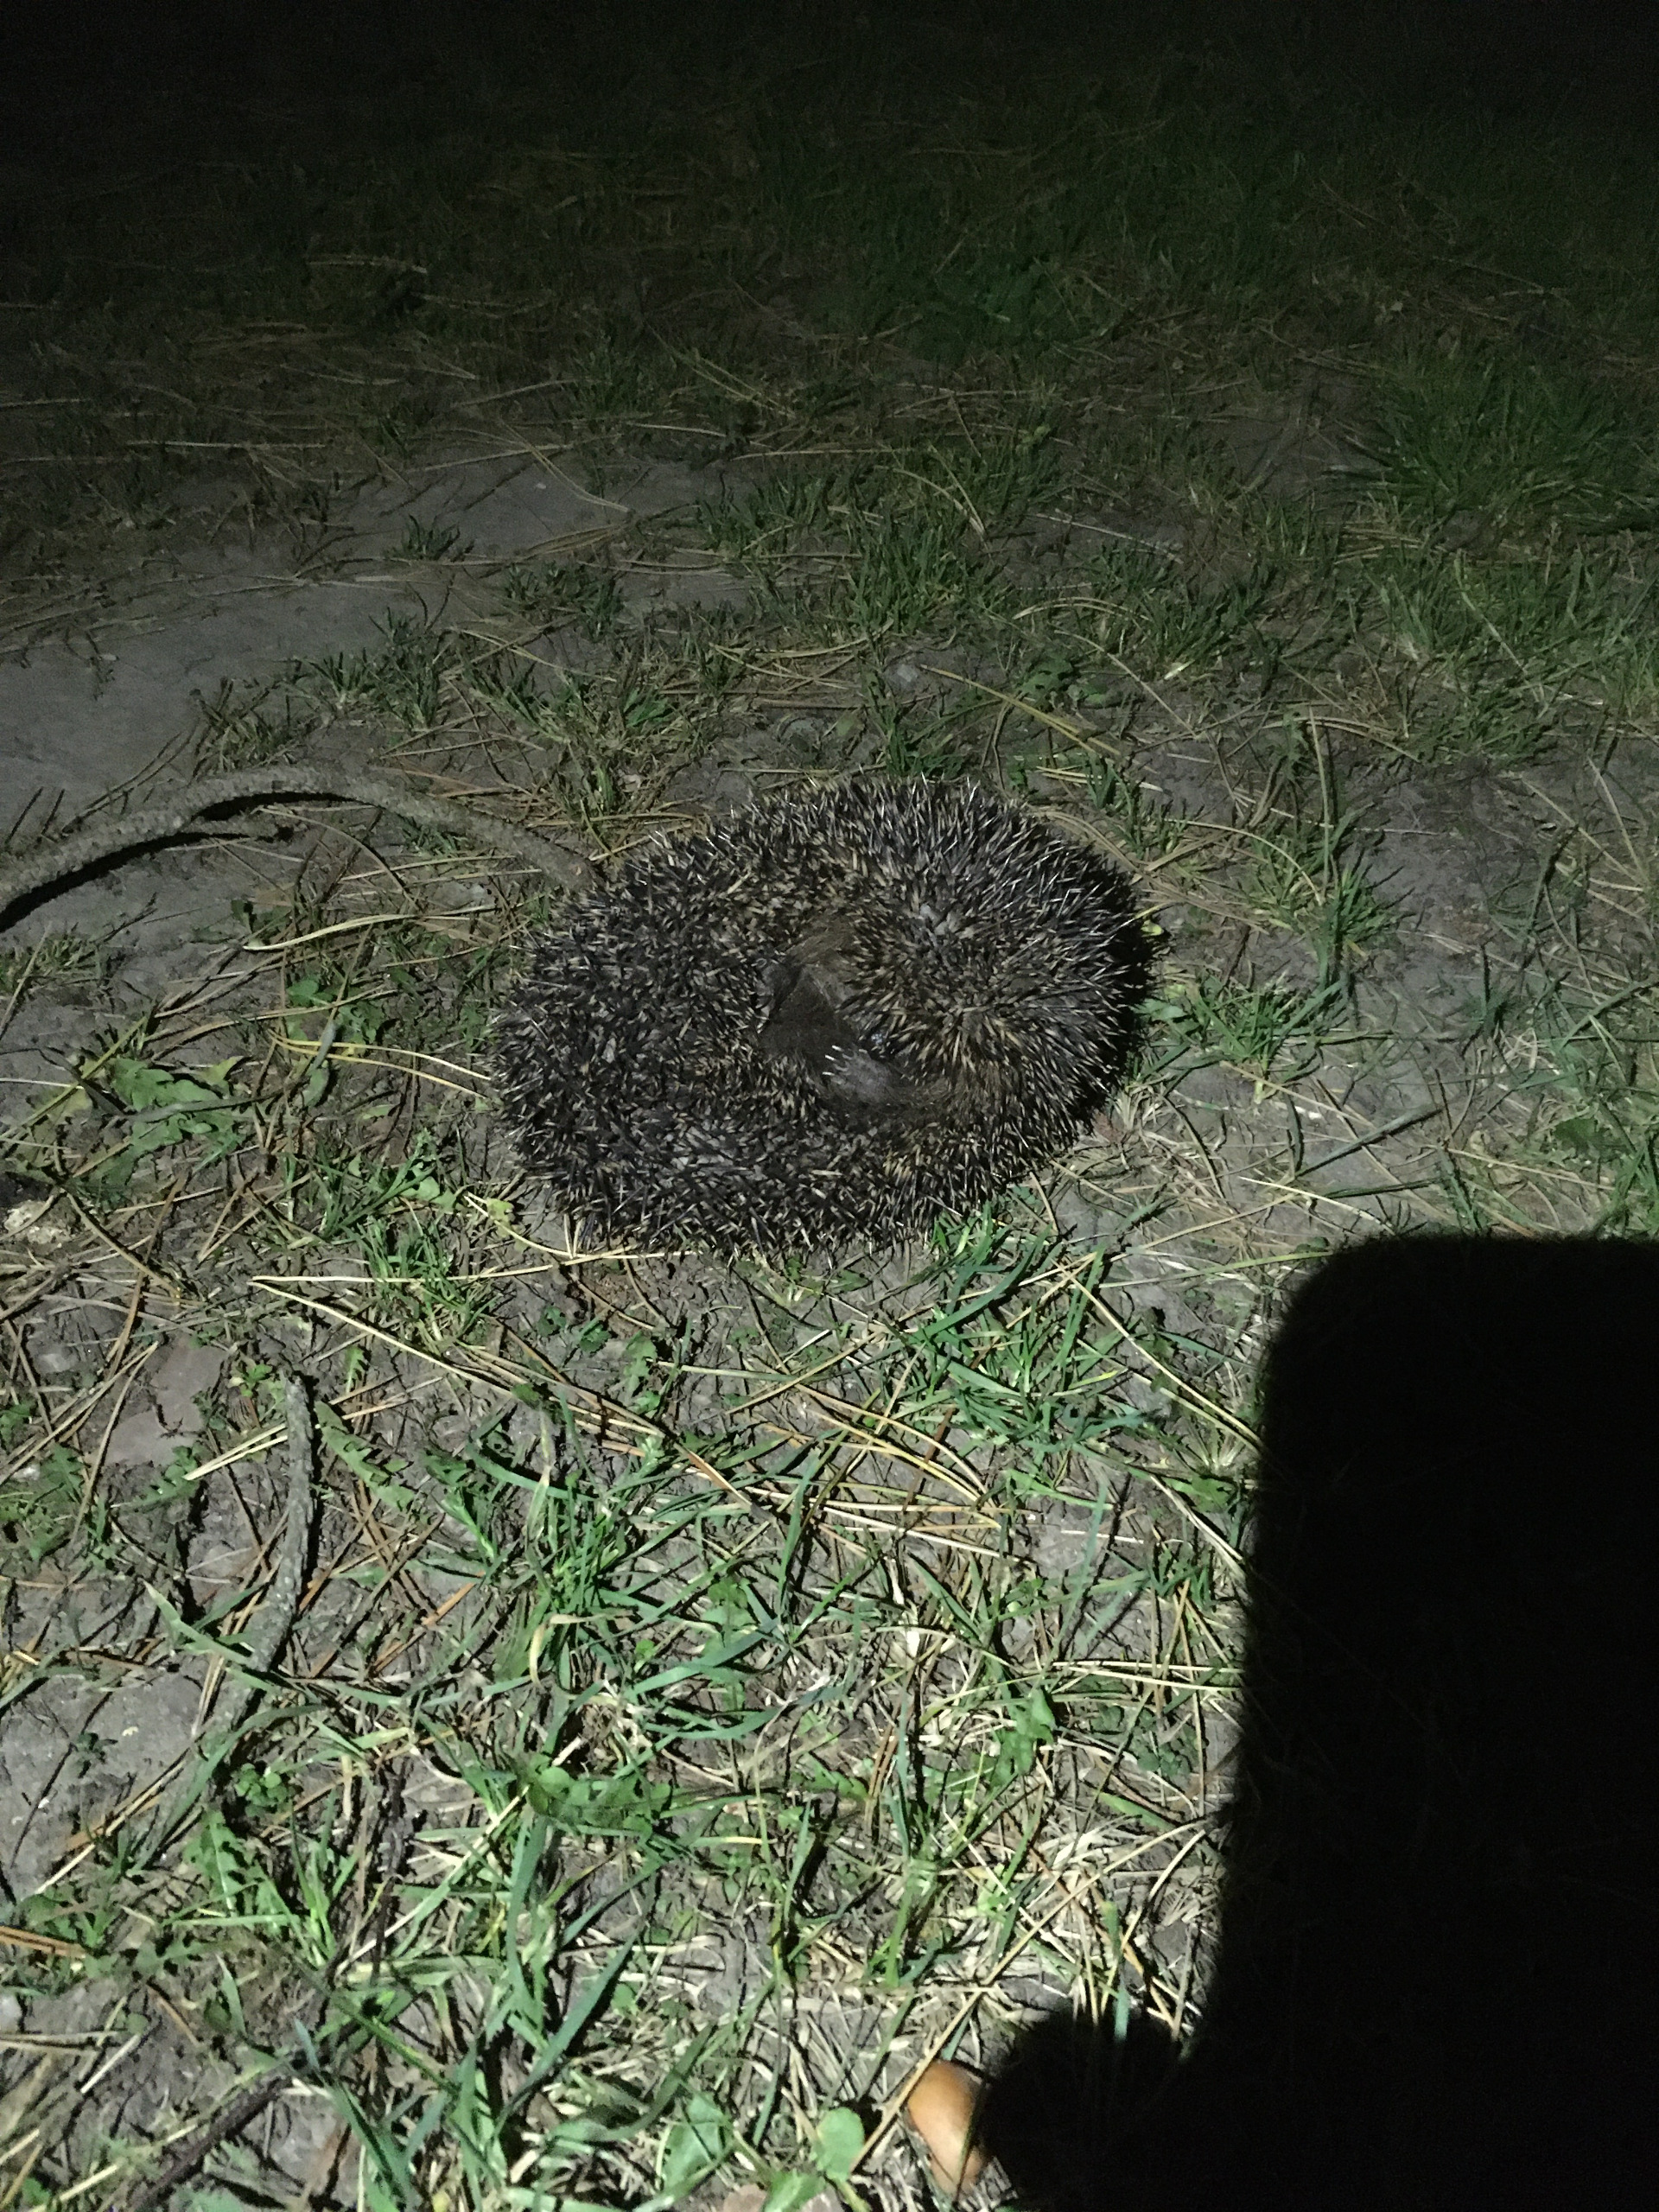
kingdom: Animalia
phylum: Chordata
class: Mammalia
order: Erinaceomorpha
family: Erinaceidae
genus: Erinaceus
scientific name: Erinaceus europaeus
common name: Pindsvin
